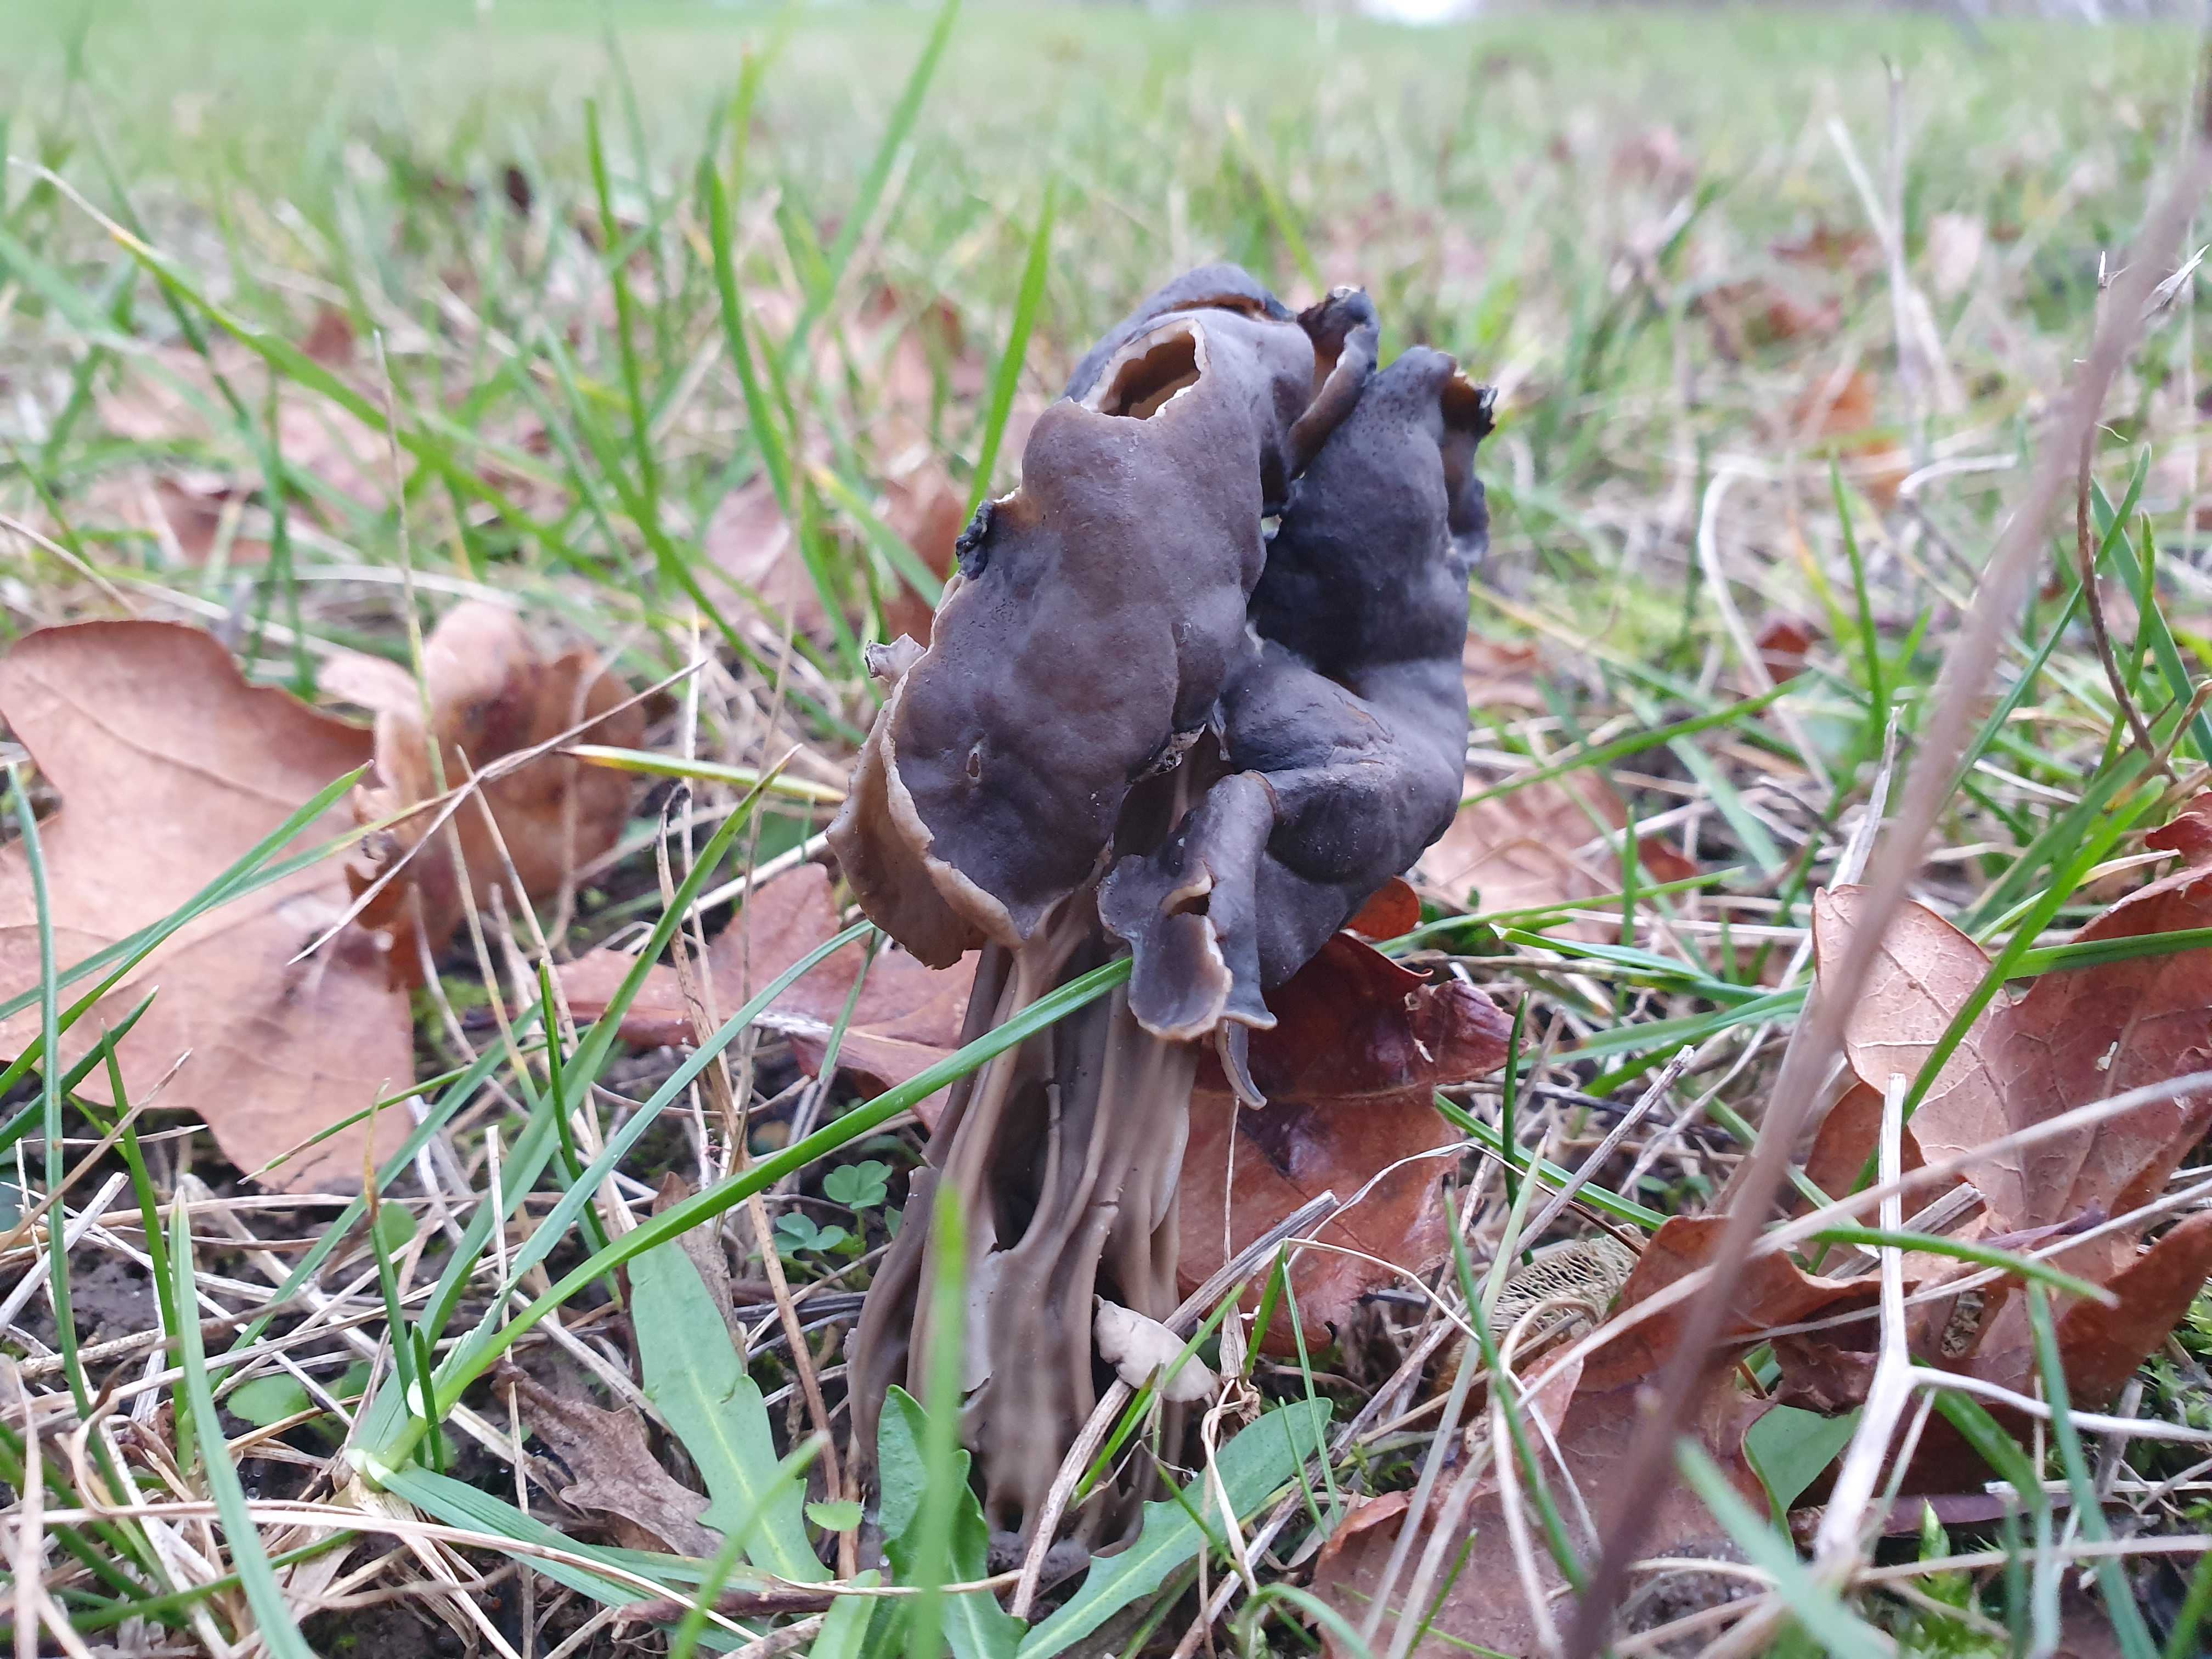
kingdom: Fungi
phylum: Ascomycota
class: Pezizomycetes
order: Pezizales
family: Helvellaceae
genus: Helvella
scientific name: Helvella lacunosa
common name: grubet foldhat
